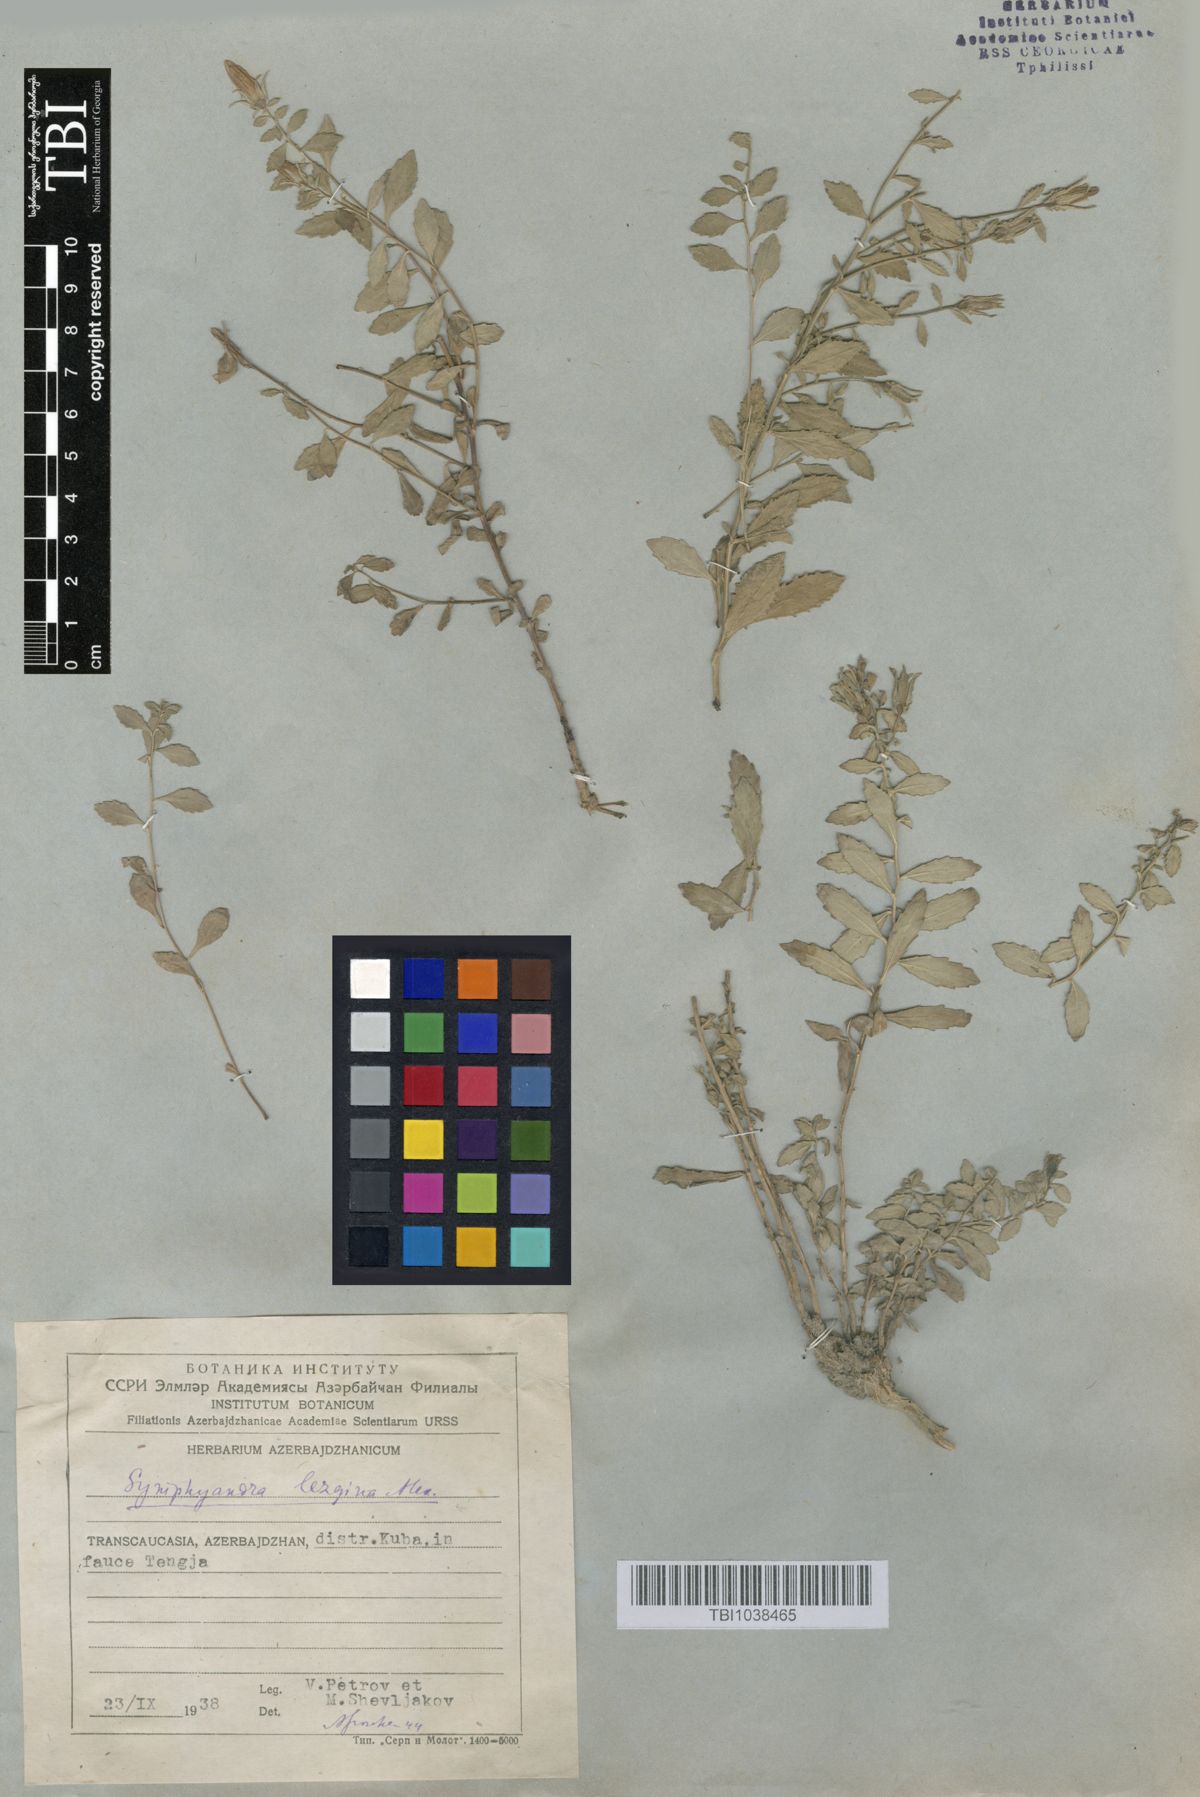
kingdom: Plantae
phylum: Tracheophyta
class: Magnoliopsida
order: Asterales
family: Campanulaceae
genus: Campanula
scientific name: Campanula lezgina
